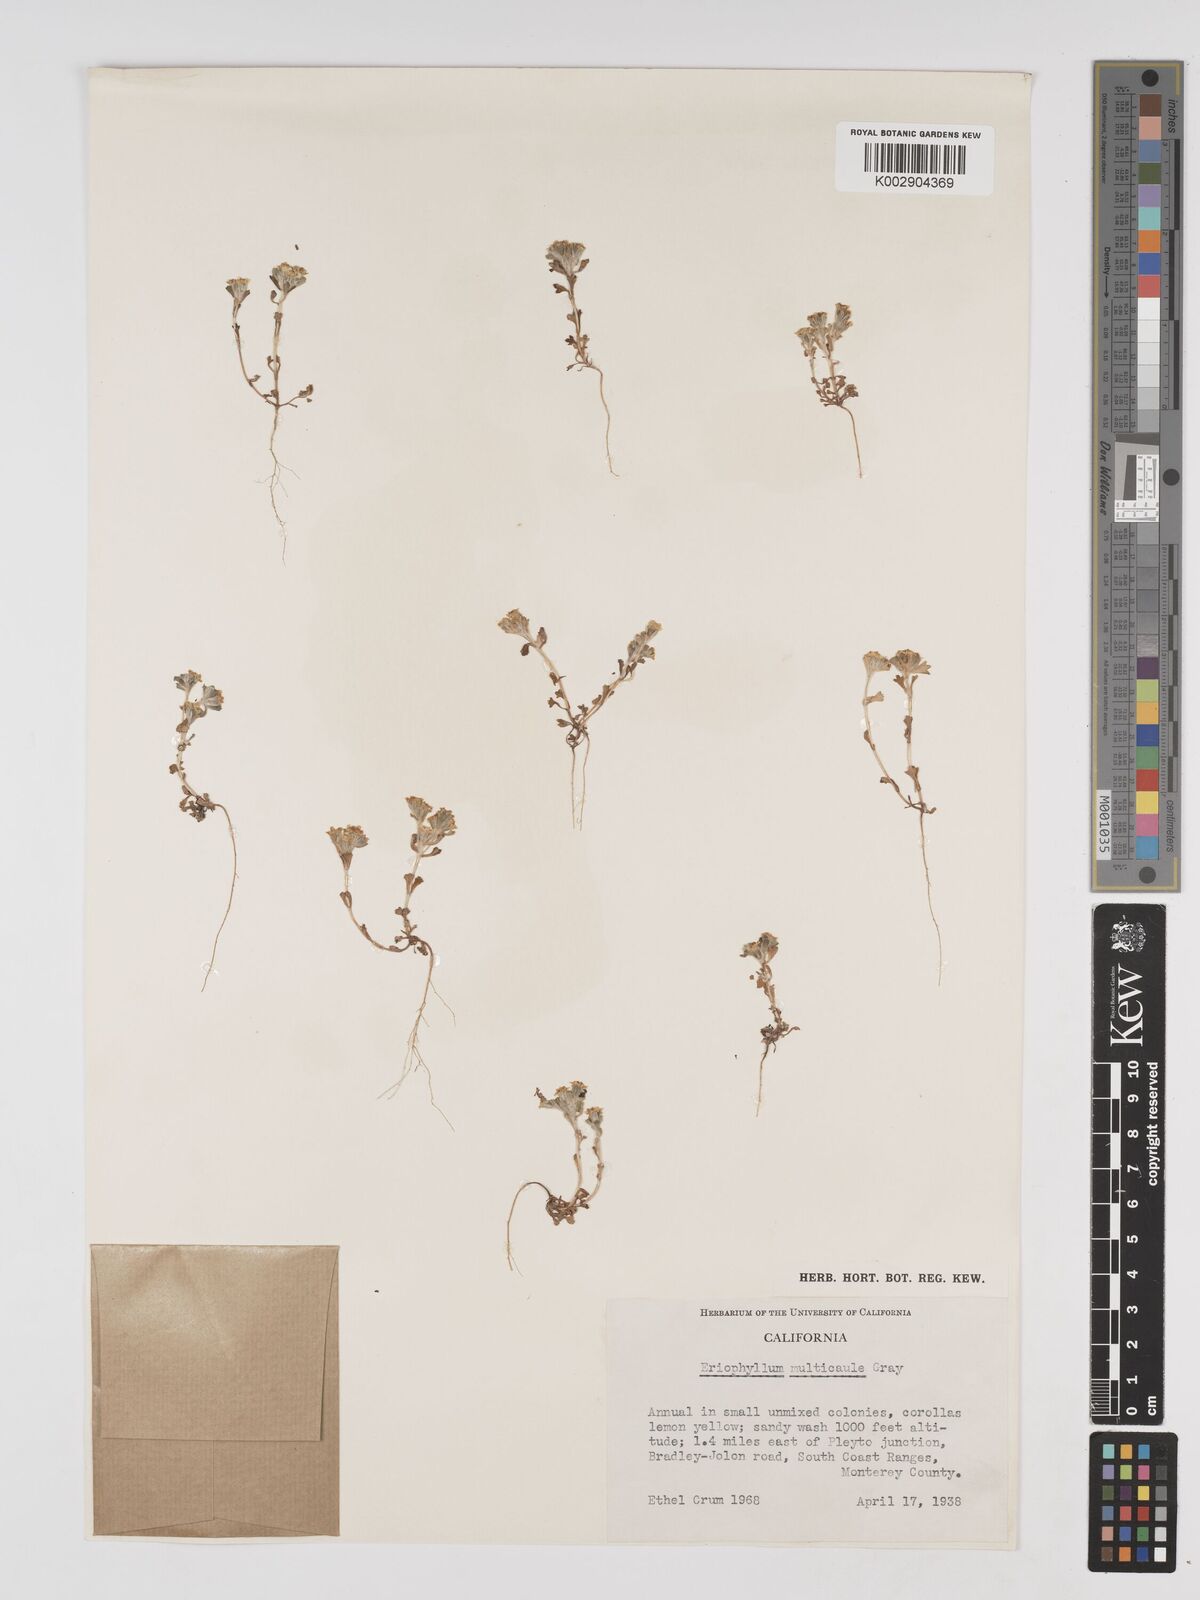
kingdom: Plantae
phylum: Tracheophyta
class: Magnoliopsida
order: Asterales
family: Asteraceae
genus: Eriophyllum
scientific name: Eriophyllum multicaule
